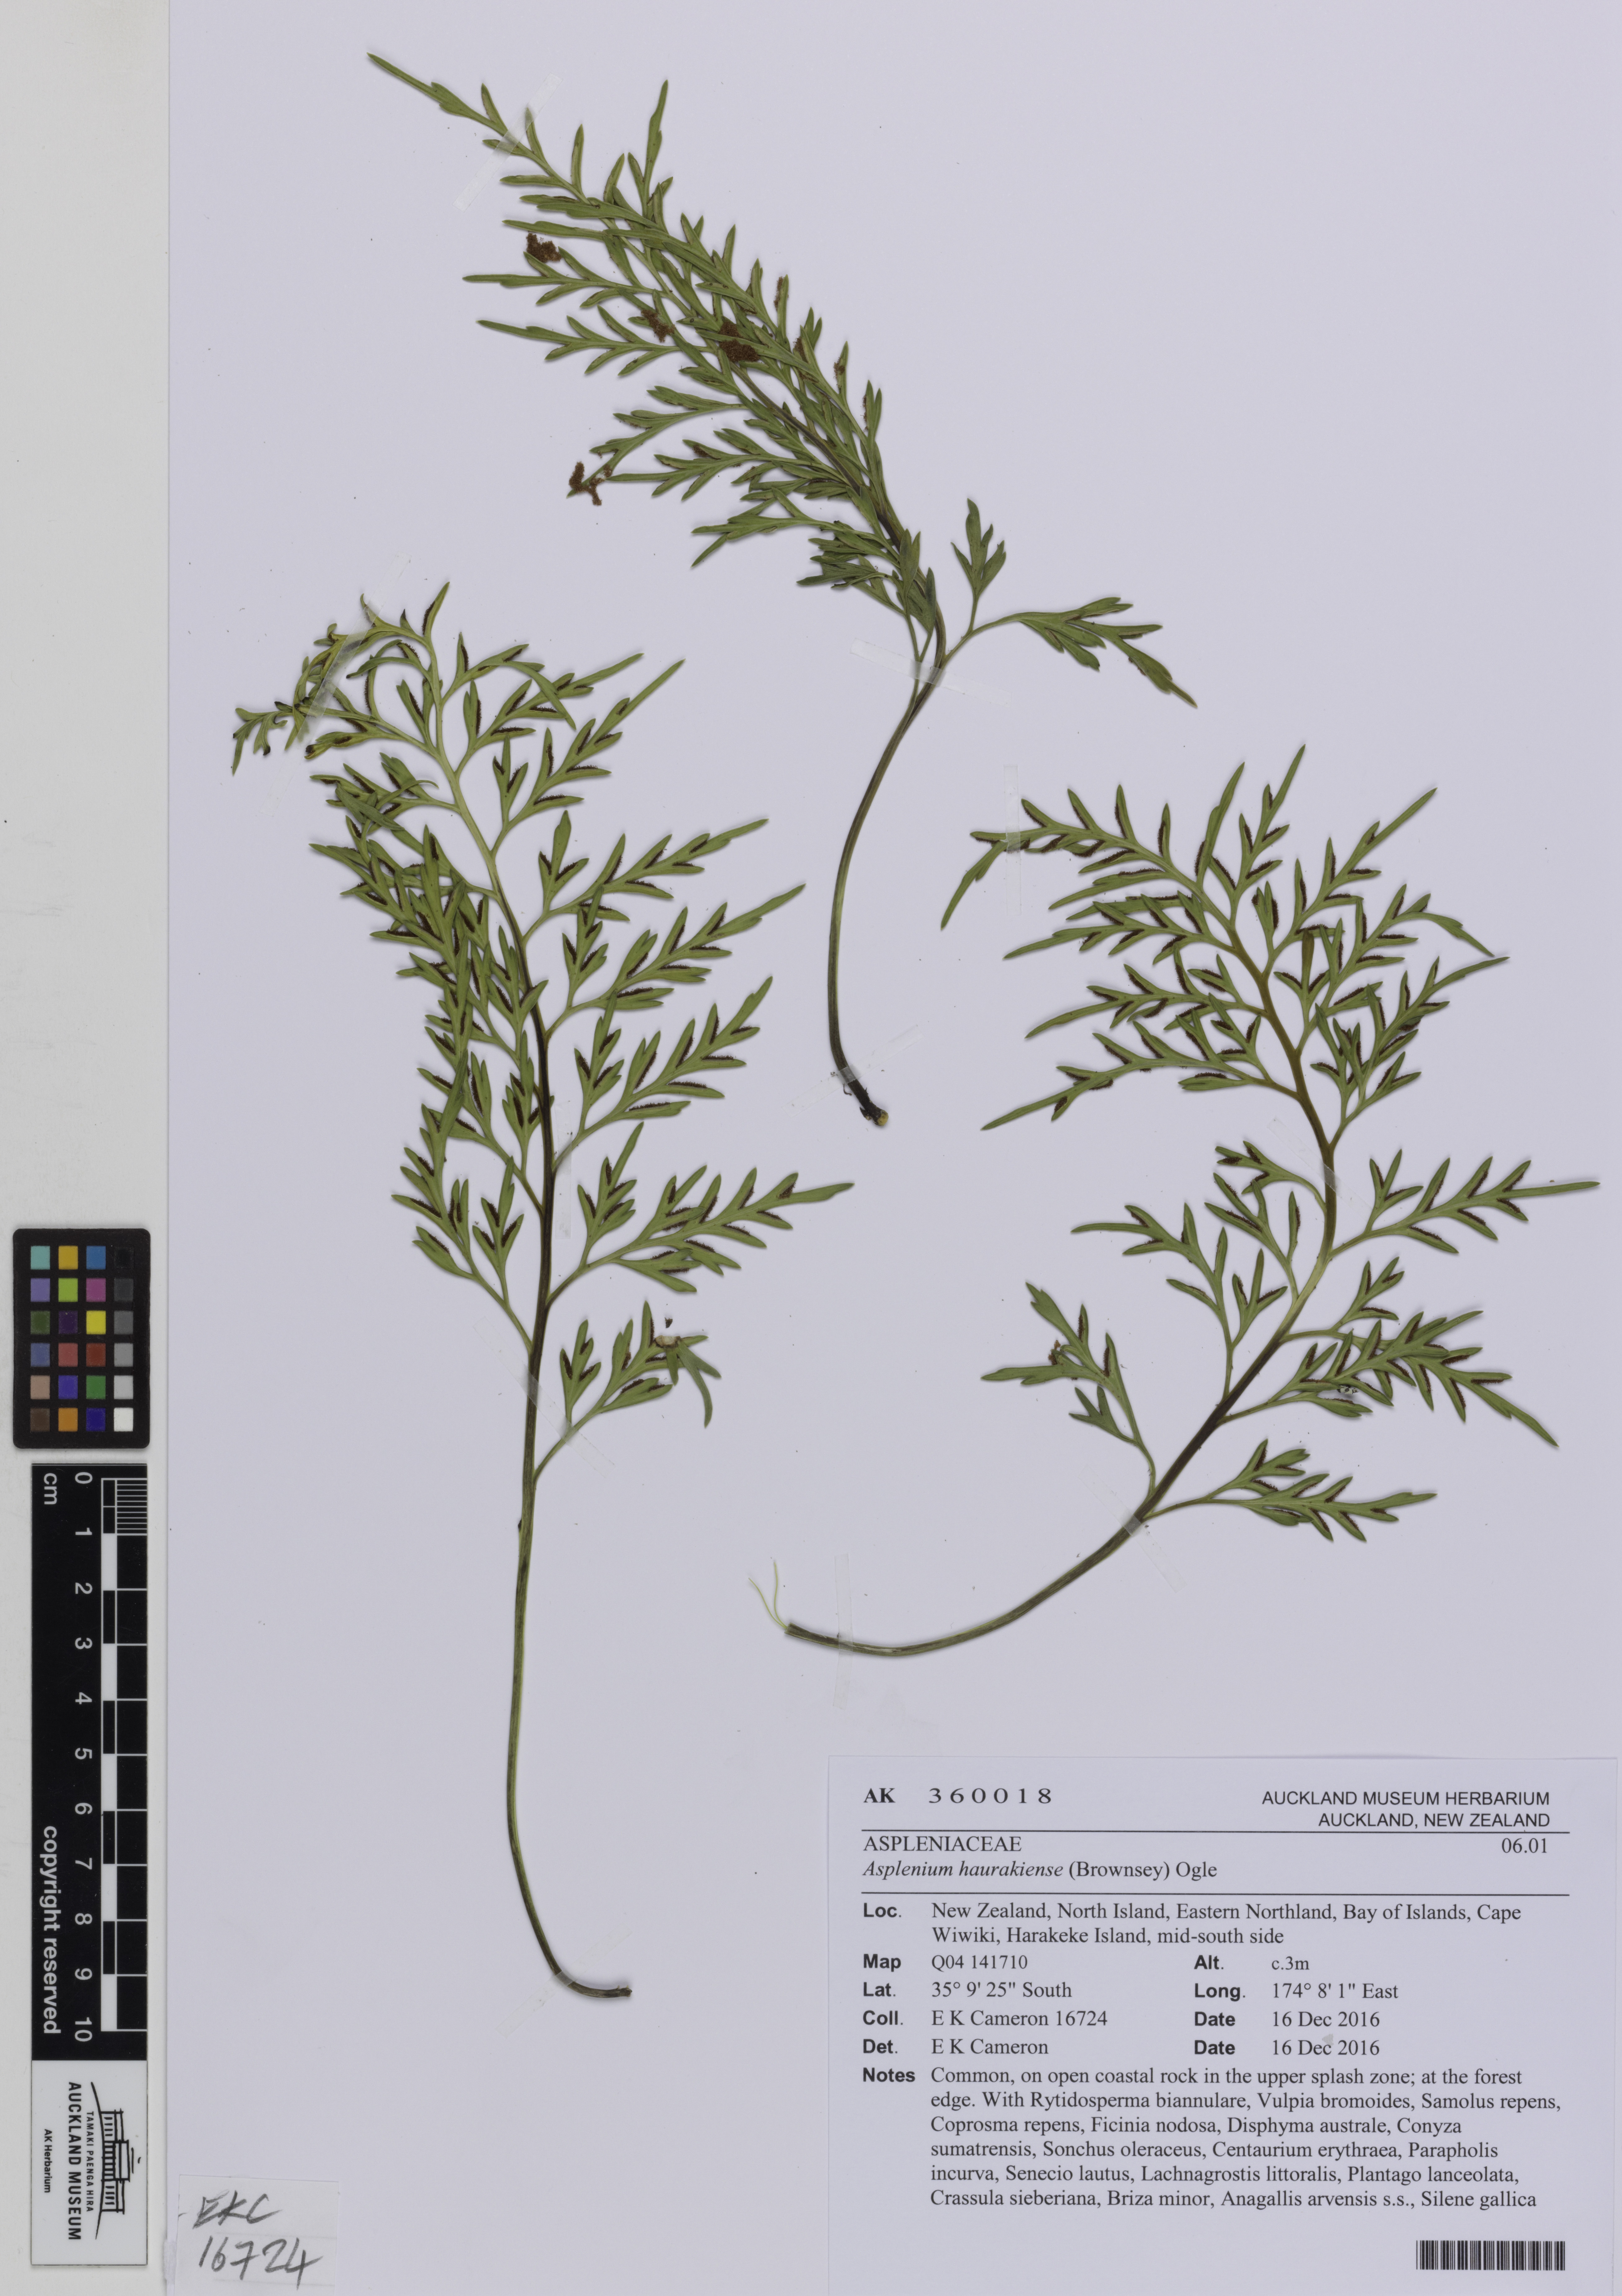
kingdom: Plantae
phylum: Tracheophyta
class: Polypodiopsida
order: Polypodiales
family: Aspleniaceae
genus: Asplenium
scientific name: Asplenium haurakiense
